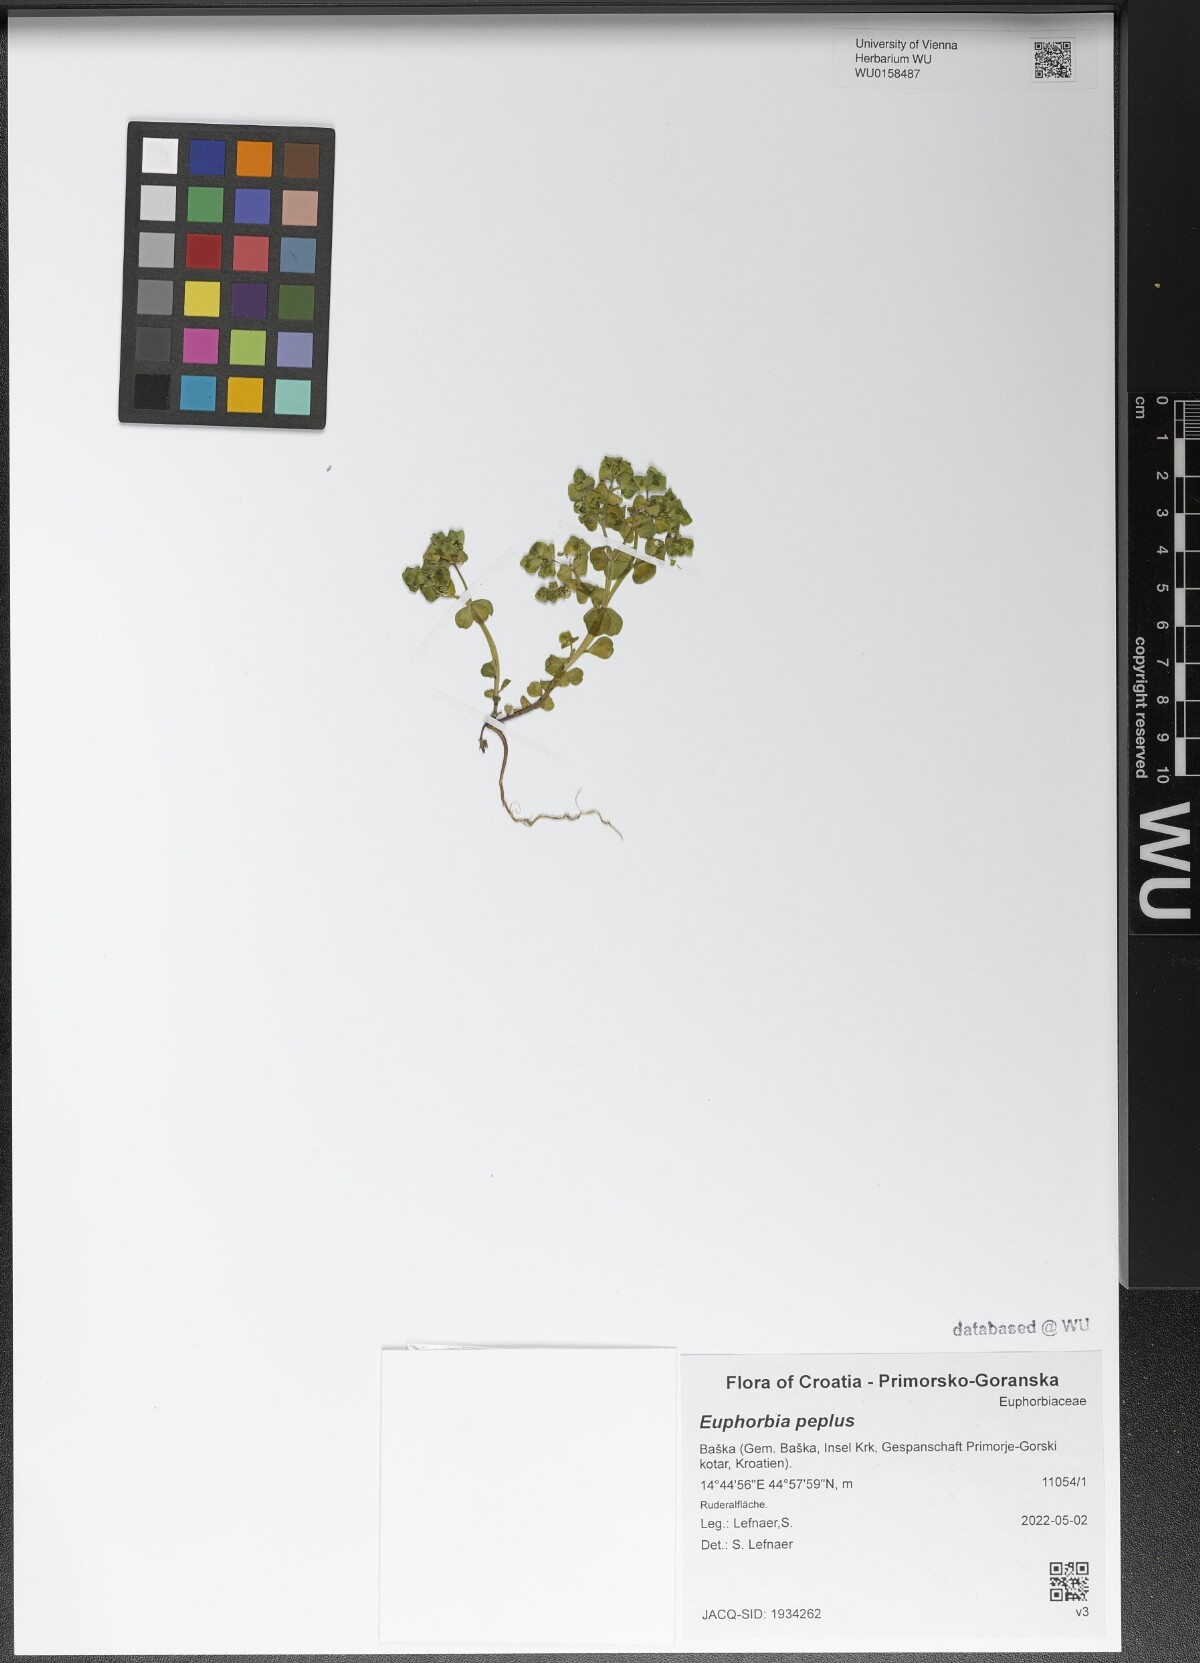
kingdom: Plantae
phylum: Tracheophyta
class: Magnoliopsida
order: Malpighiales
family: Euphorbiaceae
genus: Euphorbia
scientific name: Euphorbia peplus
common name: Petty spurge
